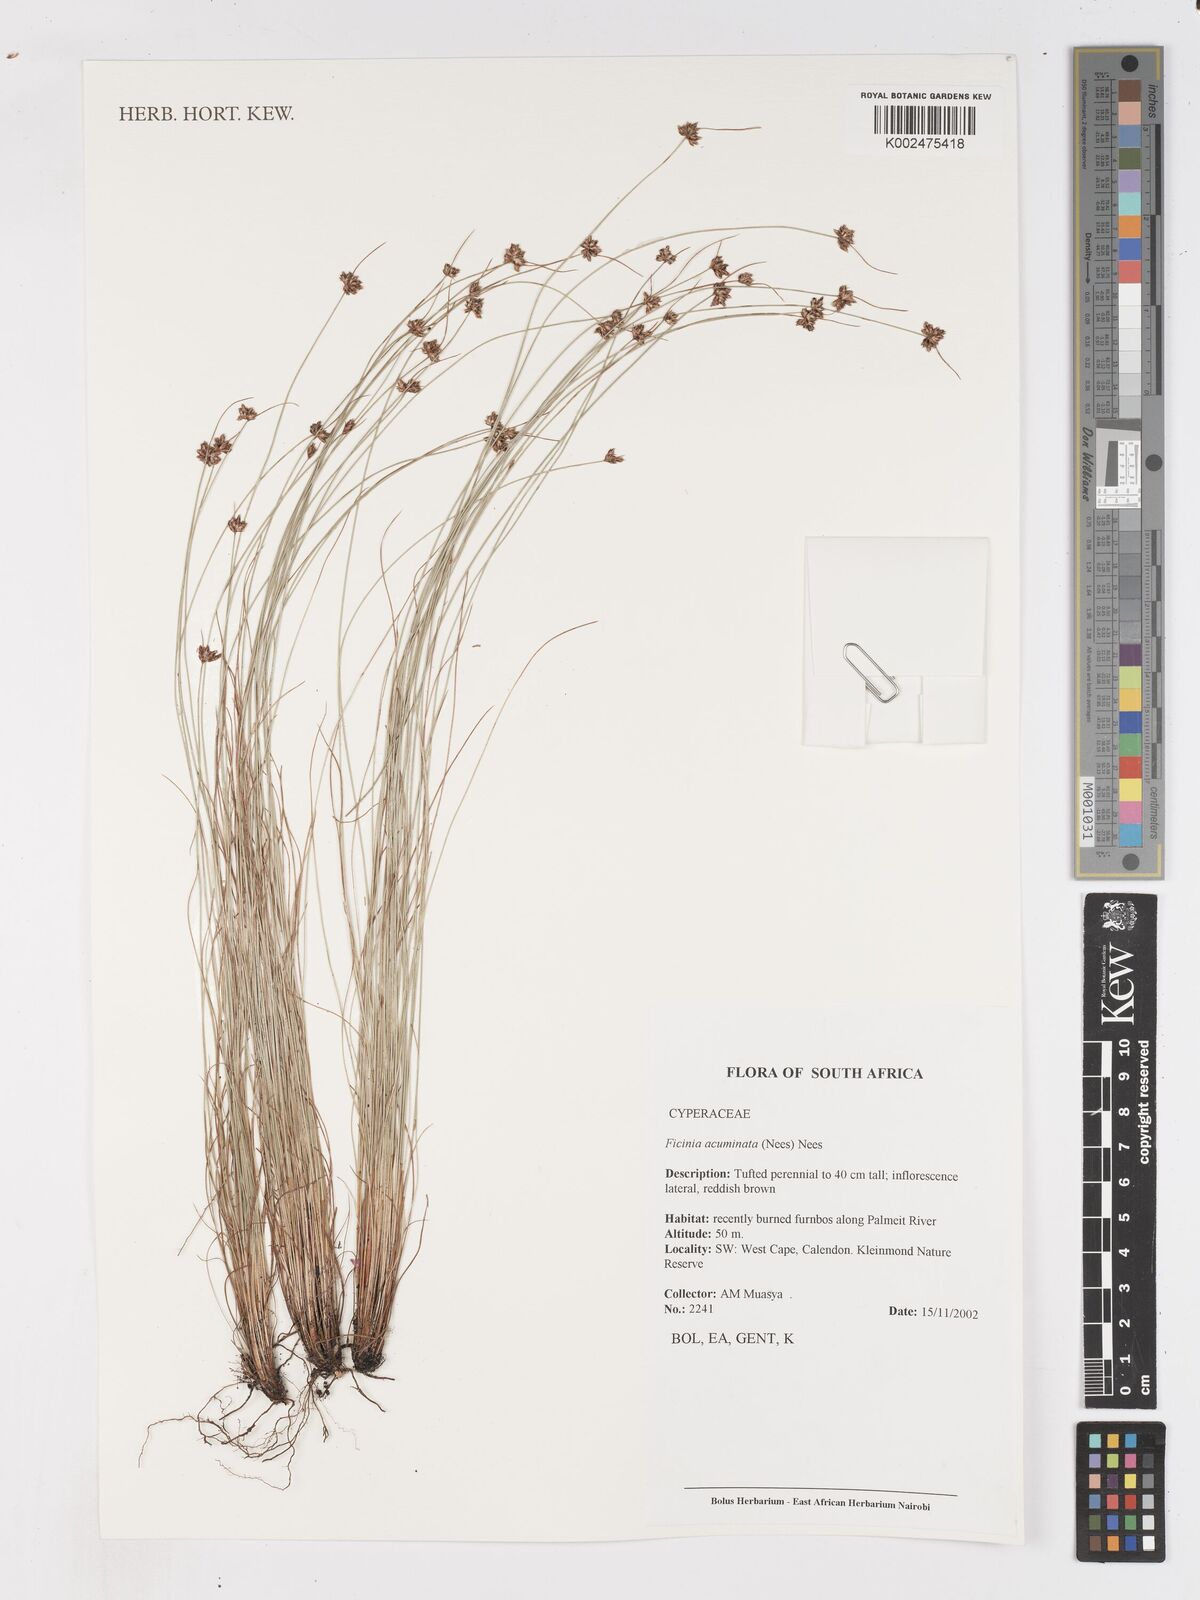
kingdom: Plantae
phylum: Tracheophyta
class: Liliopsida
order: Poales
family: Cyperaceae
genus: Ficinia
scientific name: Ficinia acuminata
